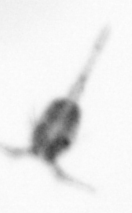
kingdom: Animalia
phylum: Arthropoda
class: Copepoda
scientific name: Copepoda
